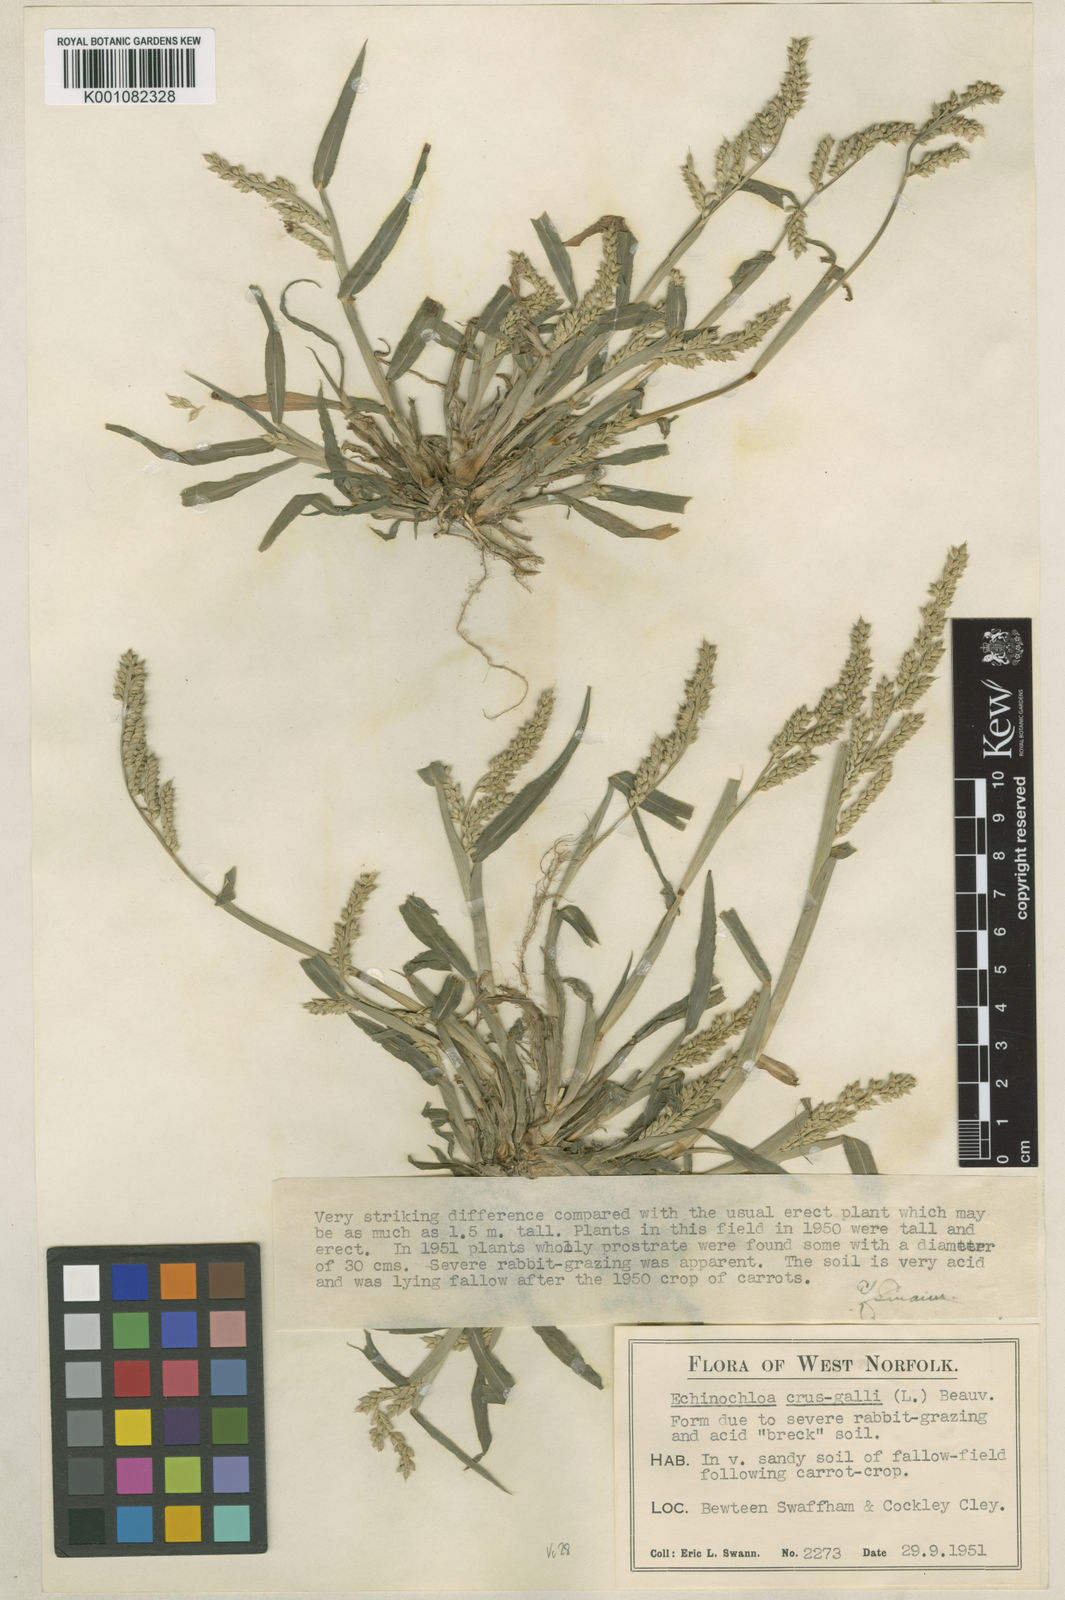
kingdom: Plantae
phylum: Tracheophyta
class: Liliopsida
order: Poales
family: Poaceae
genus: Echinochloa
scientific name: Echinochloa crus-galli
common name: Cockspur
